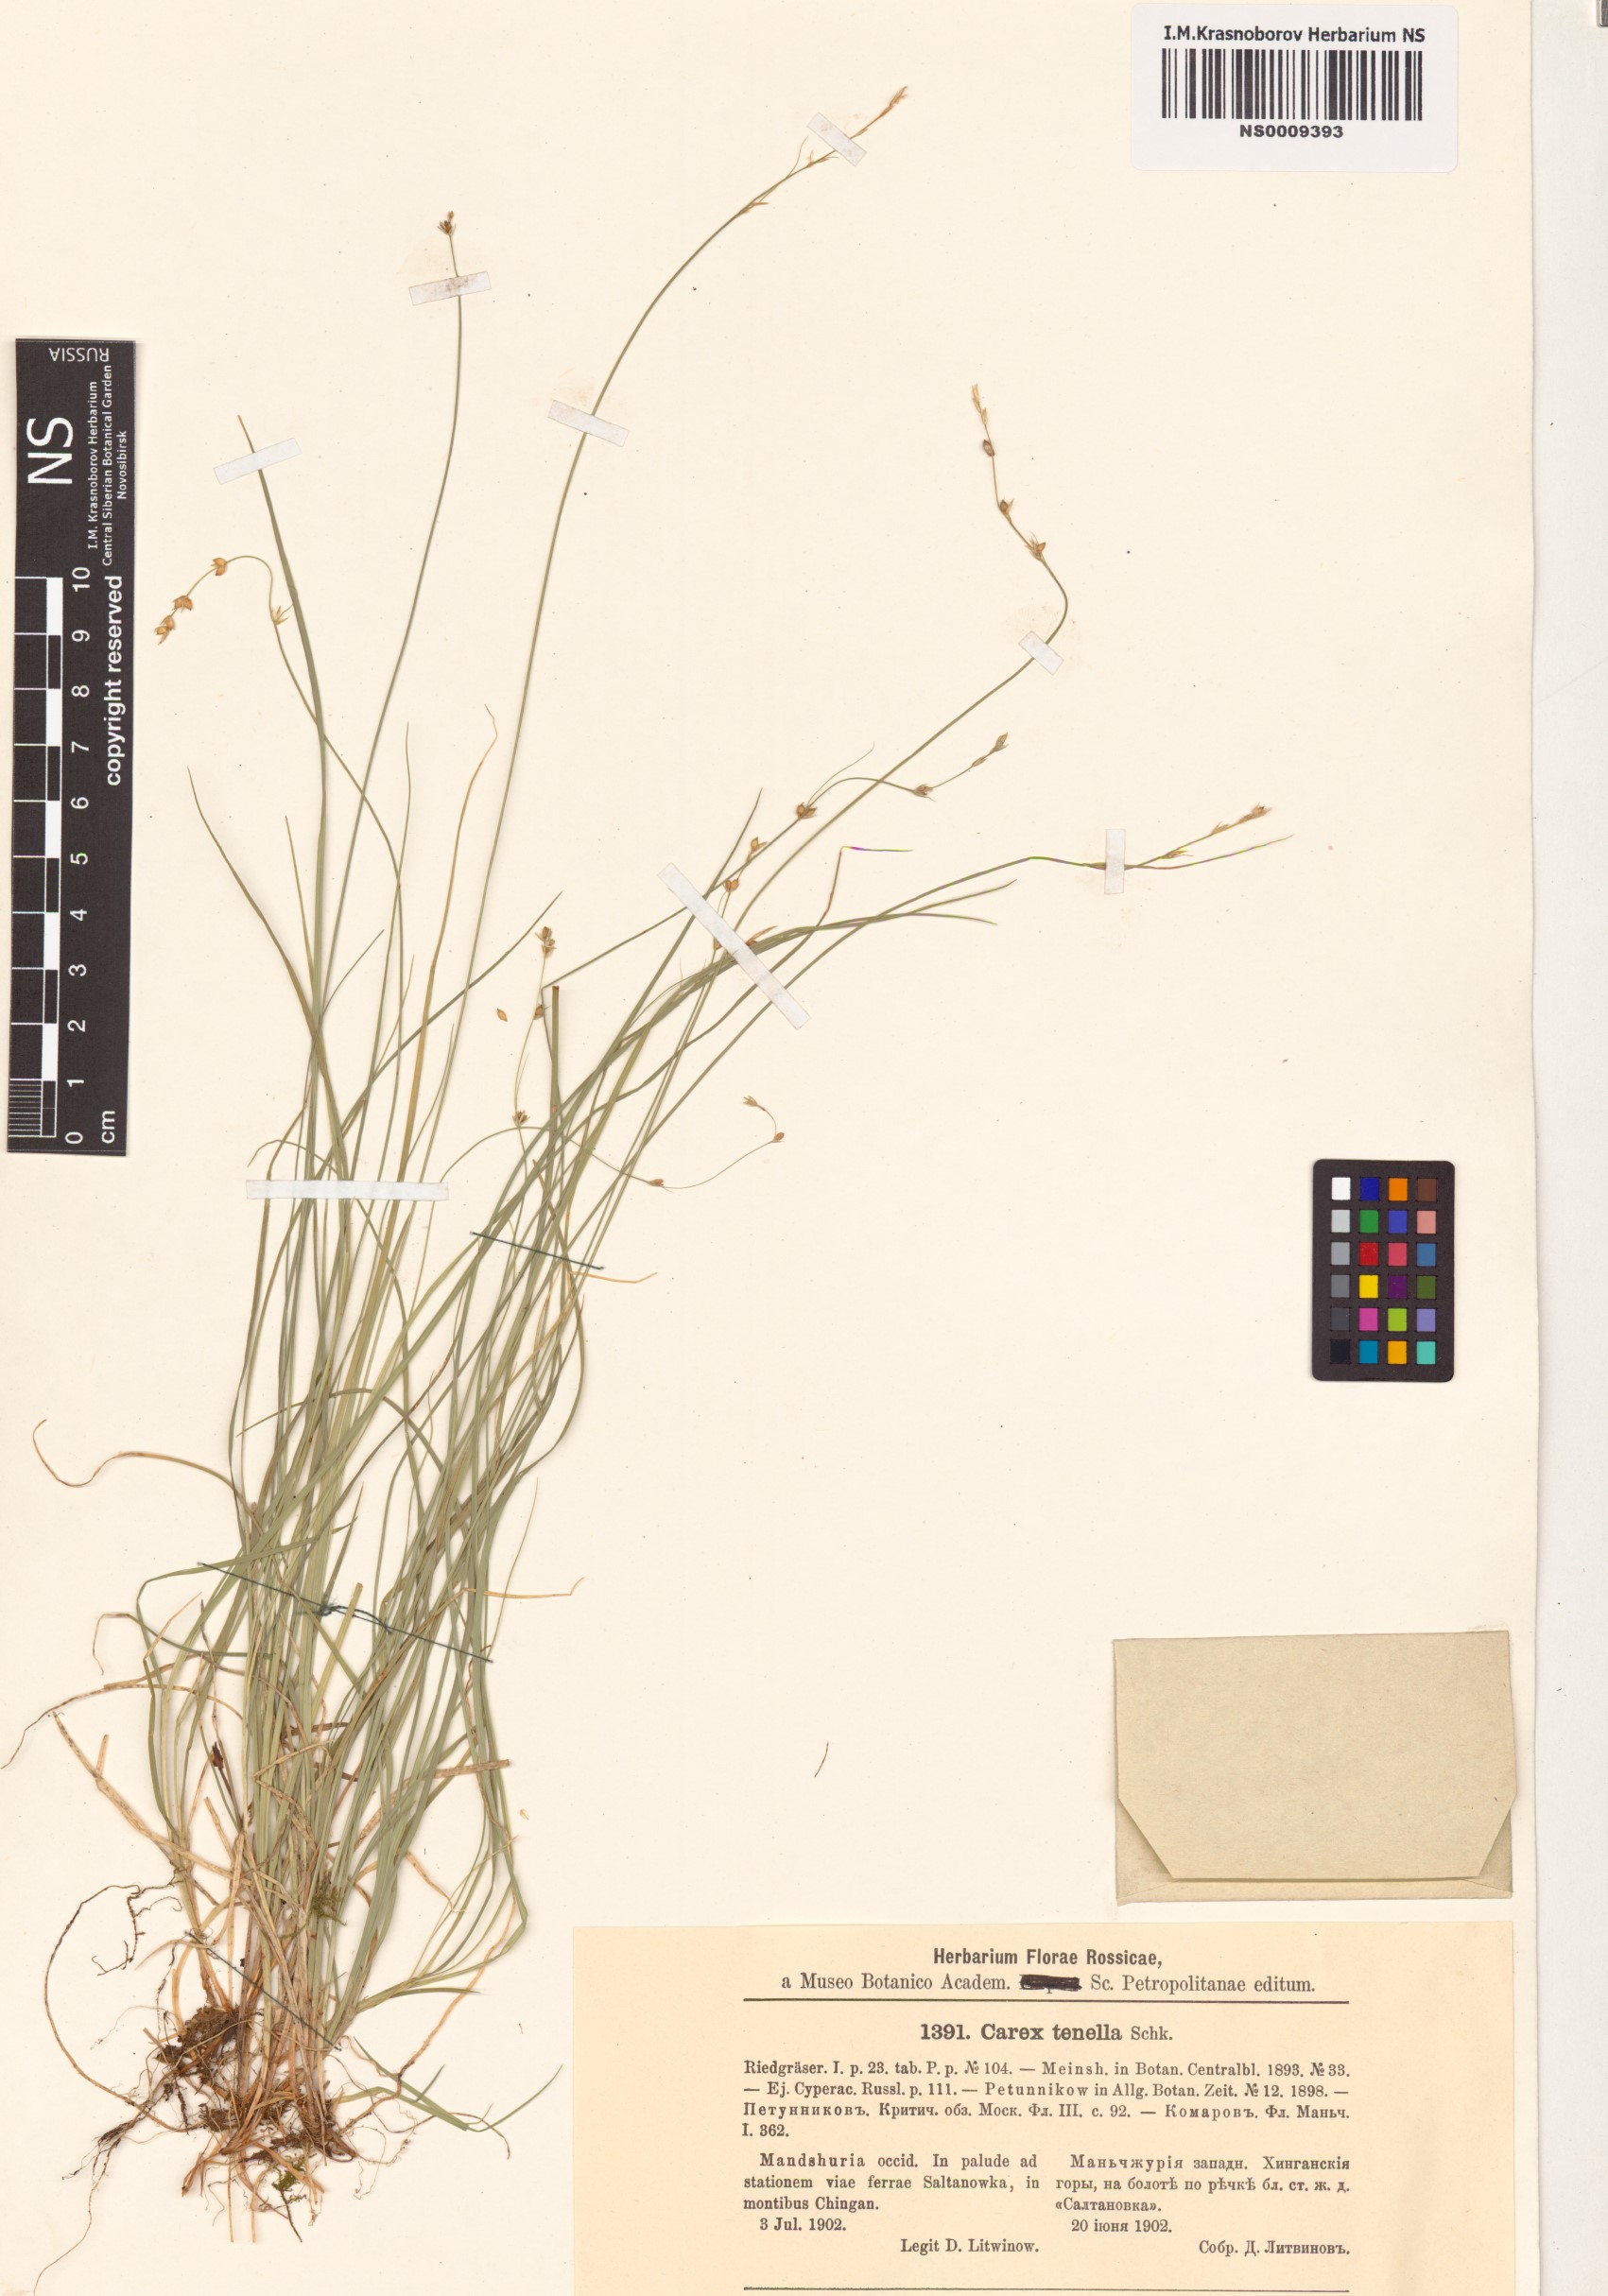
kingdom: Plantae
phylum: Tracheophyta
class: Liliopsida
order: Poales
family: Cyperaceae
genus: Carex
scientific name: Carex disperma
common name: Short-leaved sedge
